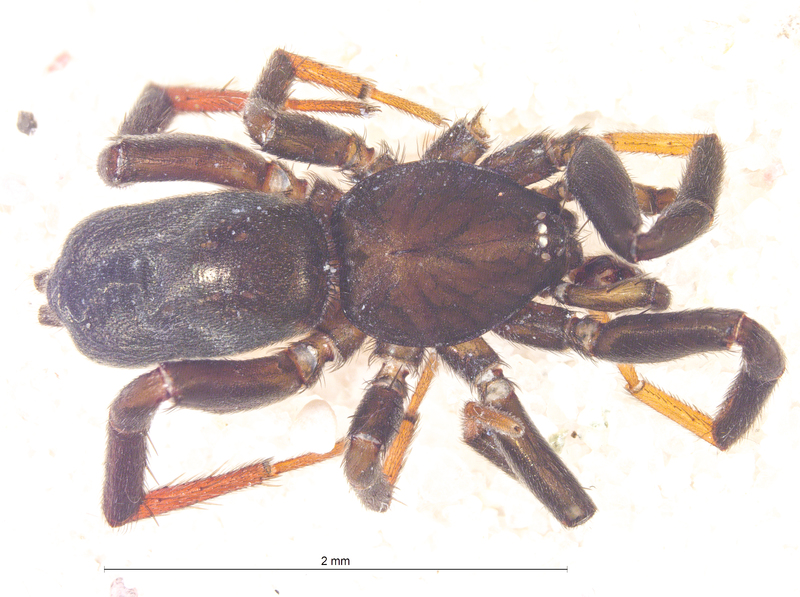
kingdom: Animalia
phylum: Arthropoda
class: Arachnida
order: Araneae
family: Gnaphosidae
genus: Drassyllus
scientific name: Drassyllus pusillus
